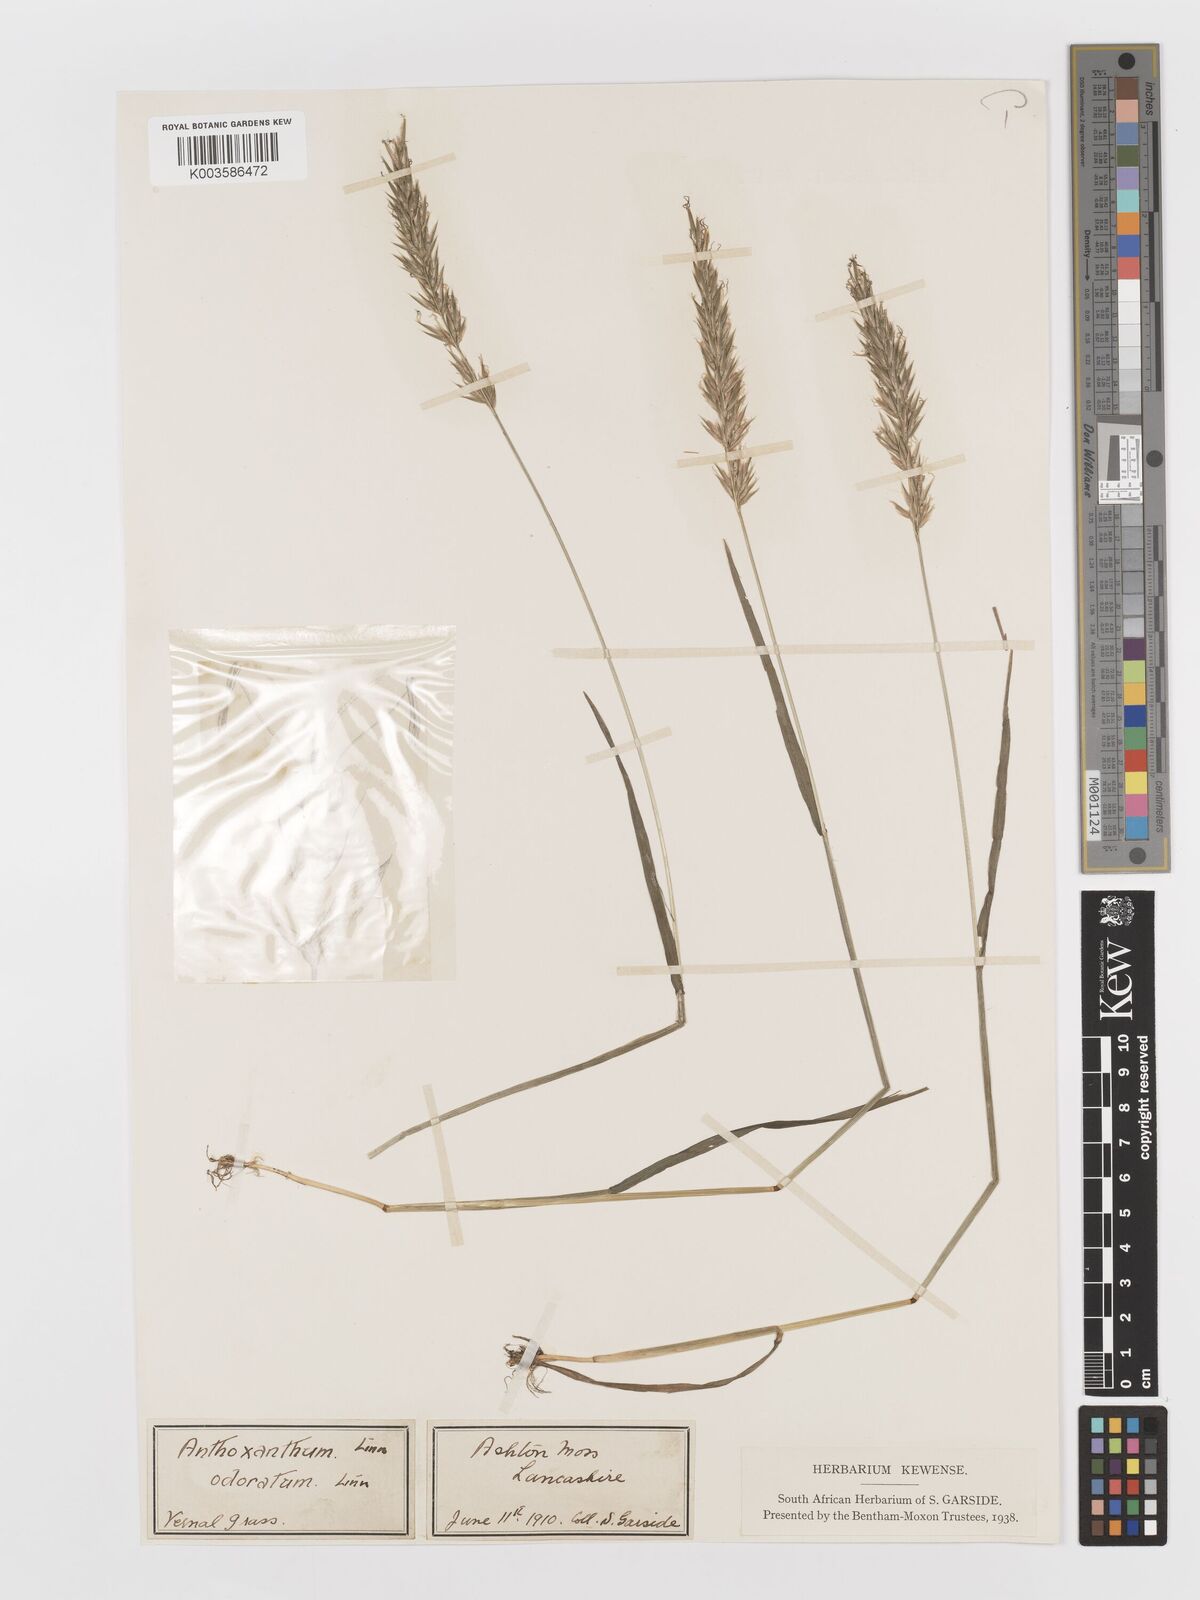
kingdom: Plantae
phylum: Tracheophyta
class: Liliopsida
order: Poales
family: Poaceae
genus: Anthoxanthum
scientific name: Anthoxanthum odoratum
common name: Sweet vernalgrass
